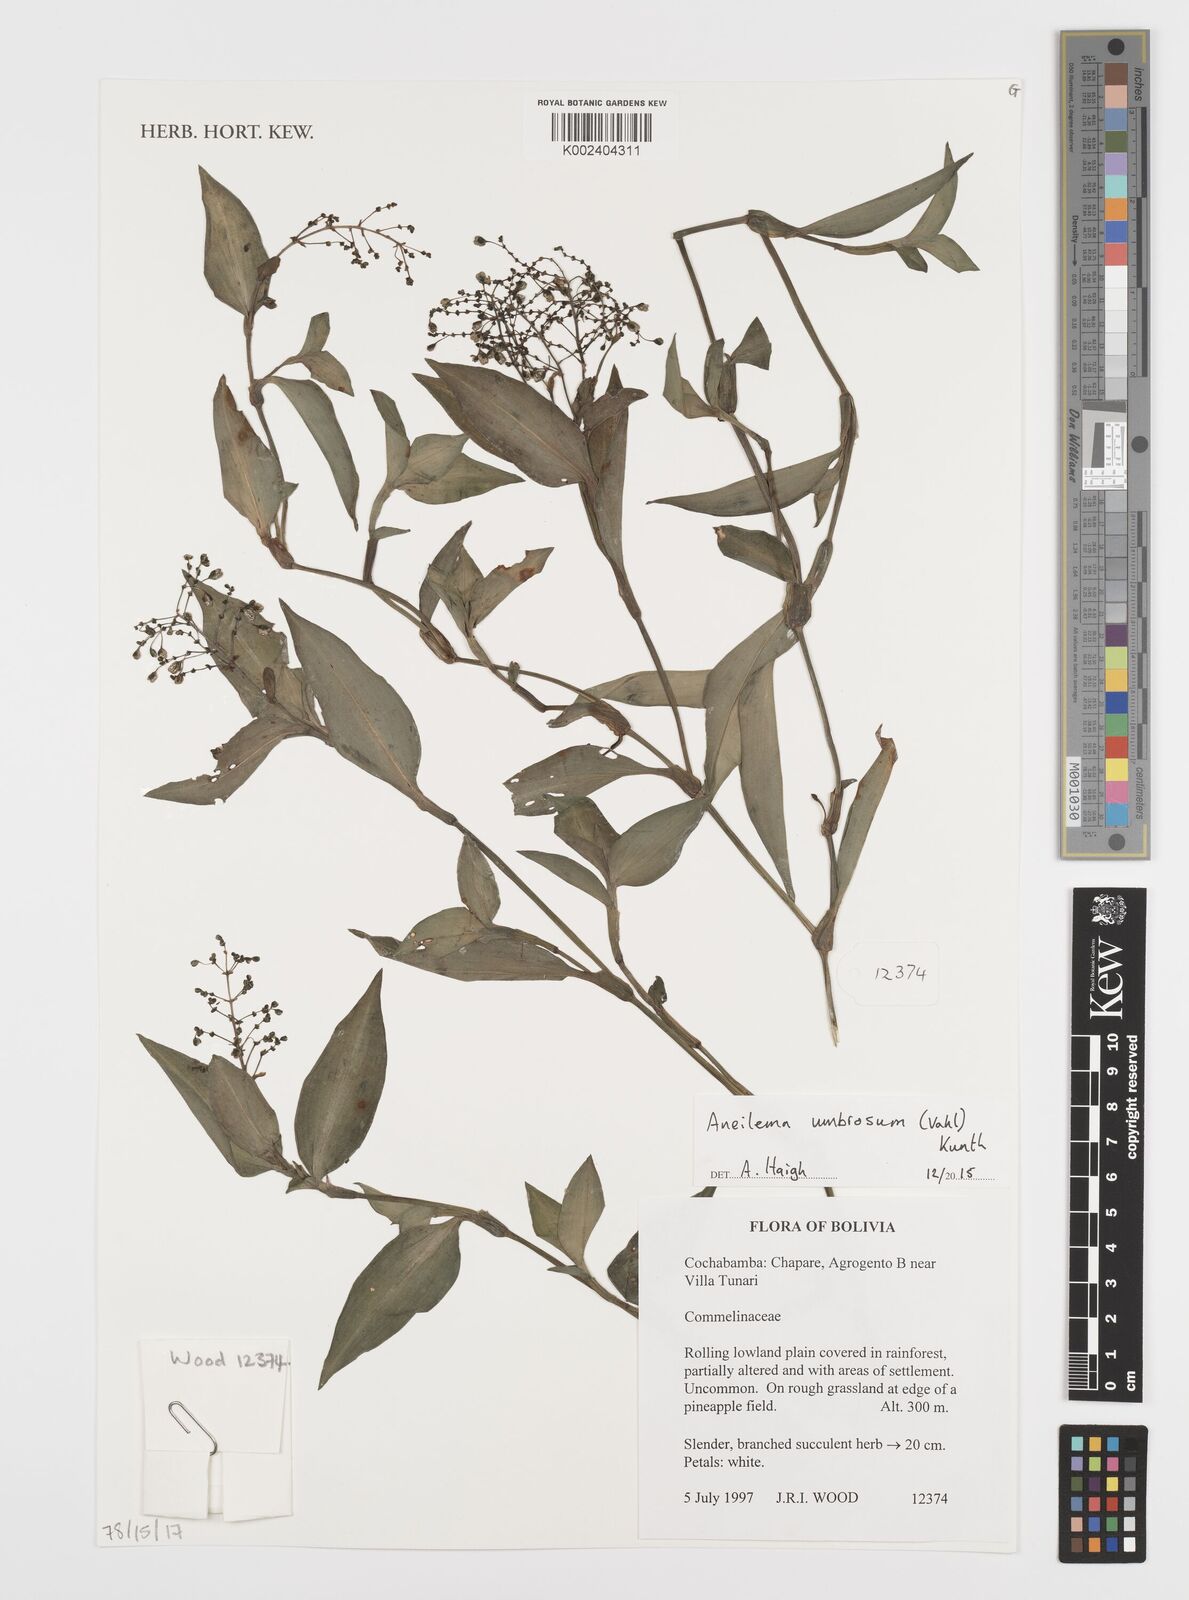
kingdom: Plantae
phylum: Tracheophyta
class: Liliopsida
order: Commelinales
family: Commelinaceae
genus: Aneilema
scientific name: Aneilema umbrosum
